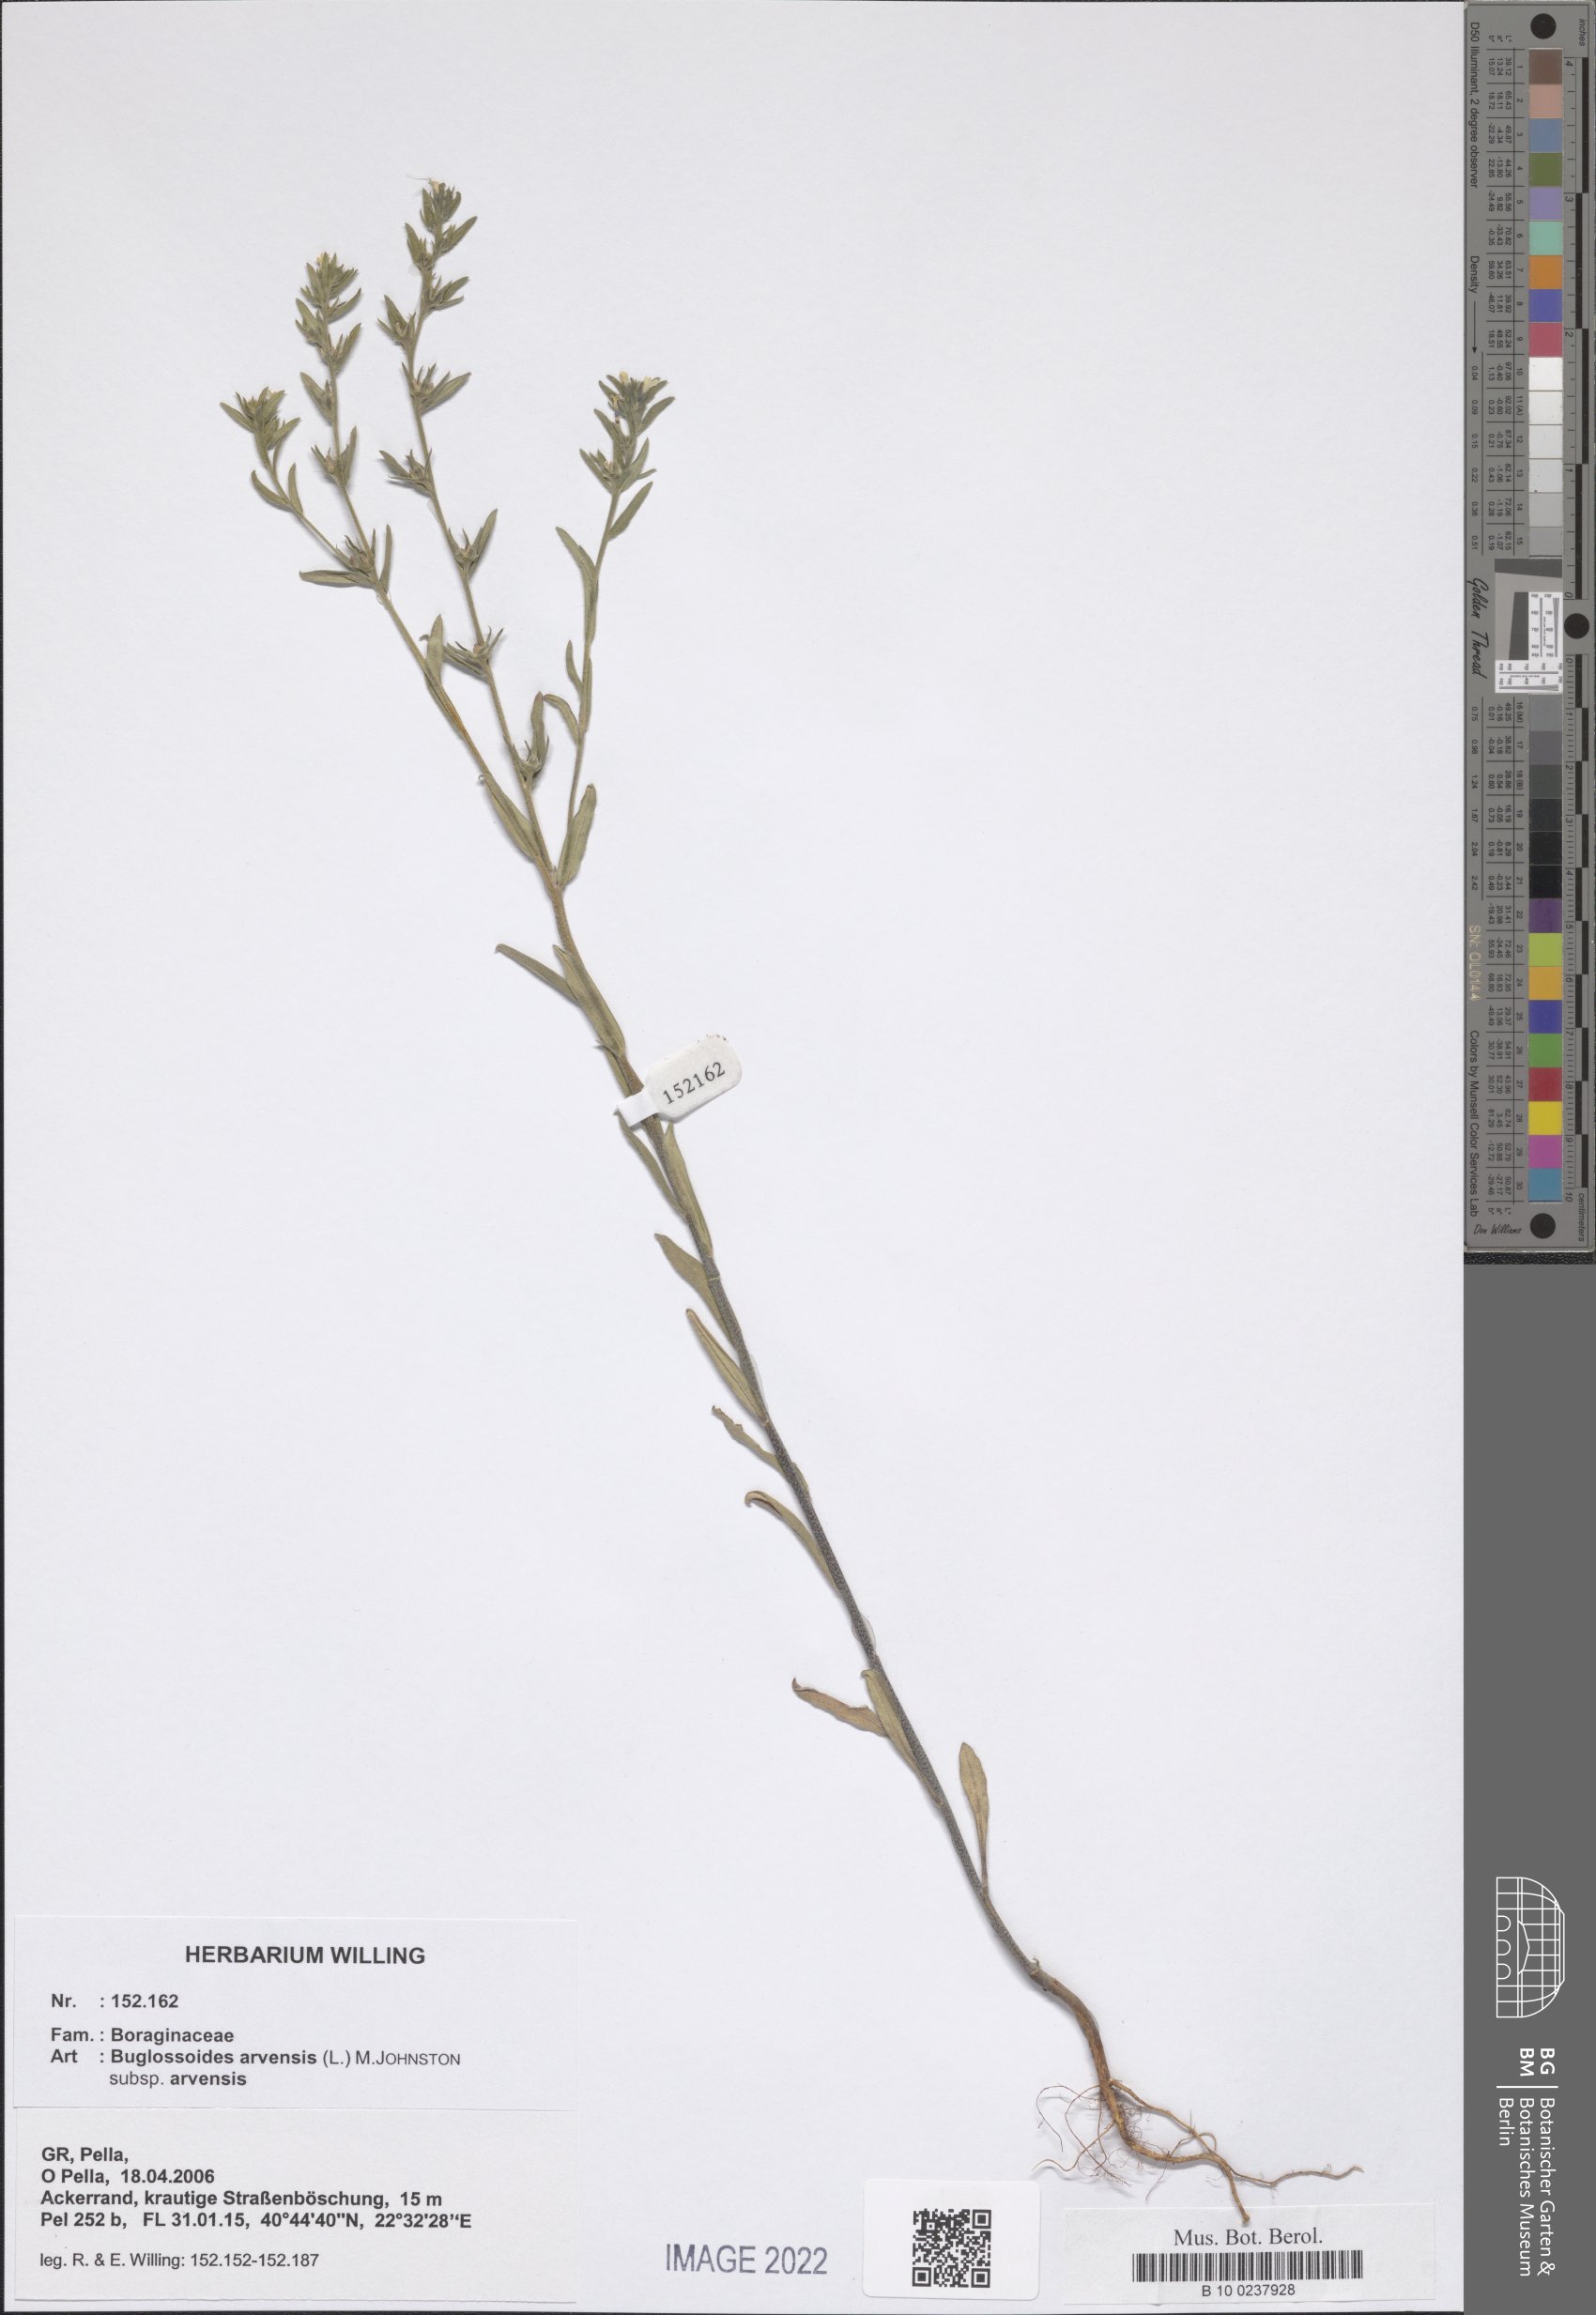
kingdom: Plantae
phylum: Tracheophyta
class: Magnoliopsida
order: Boraginales
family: Boraginaceae
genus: Buglossoides
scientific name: Buglossoides arvensis
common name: Corn gromwell
